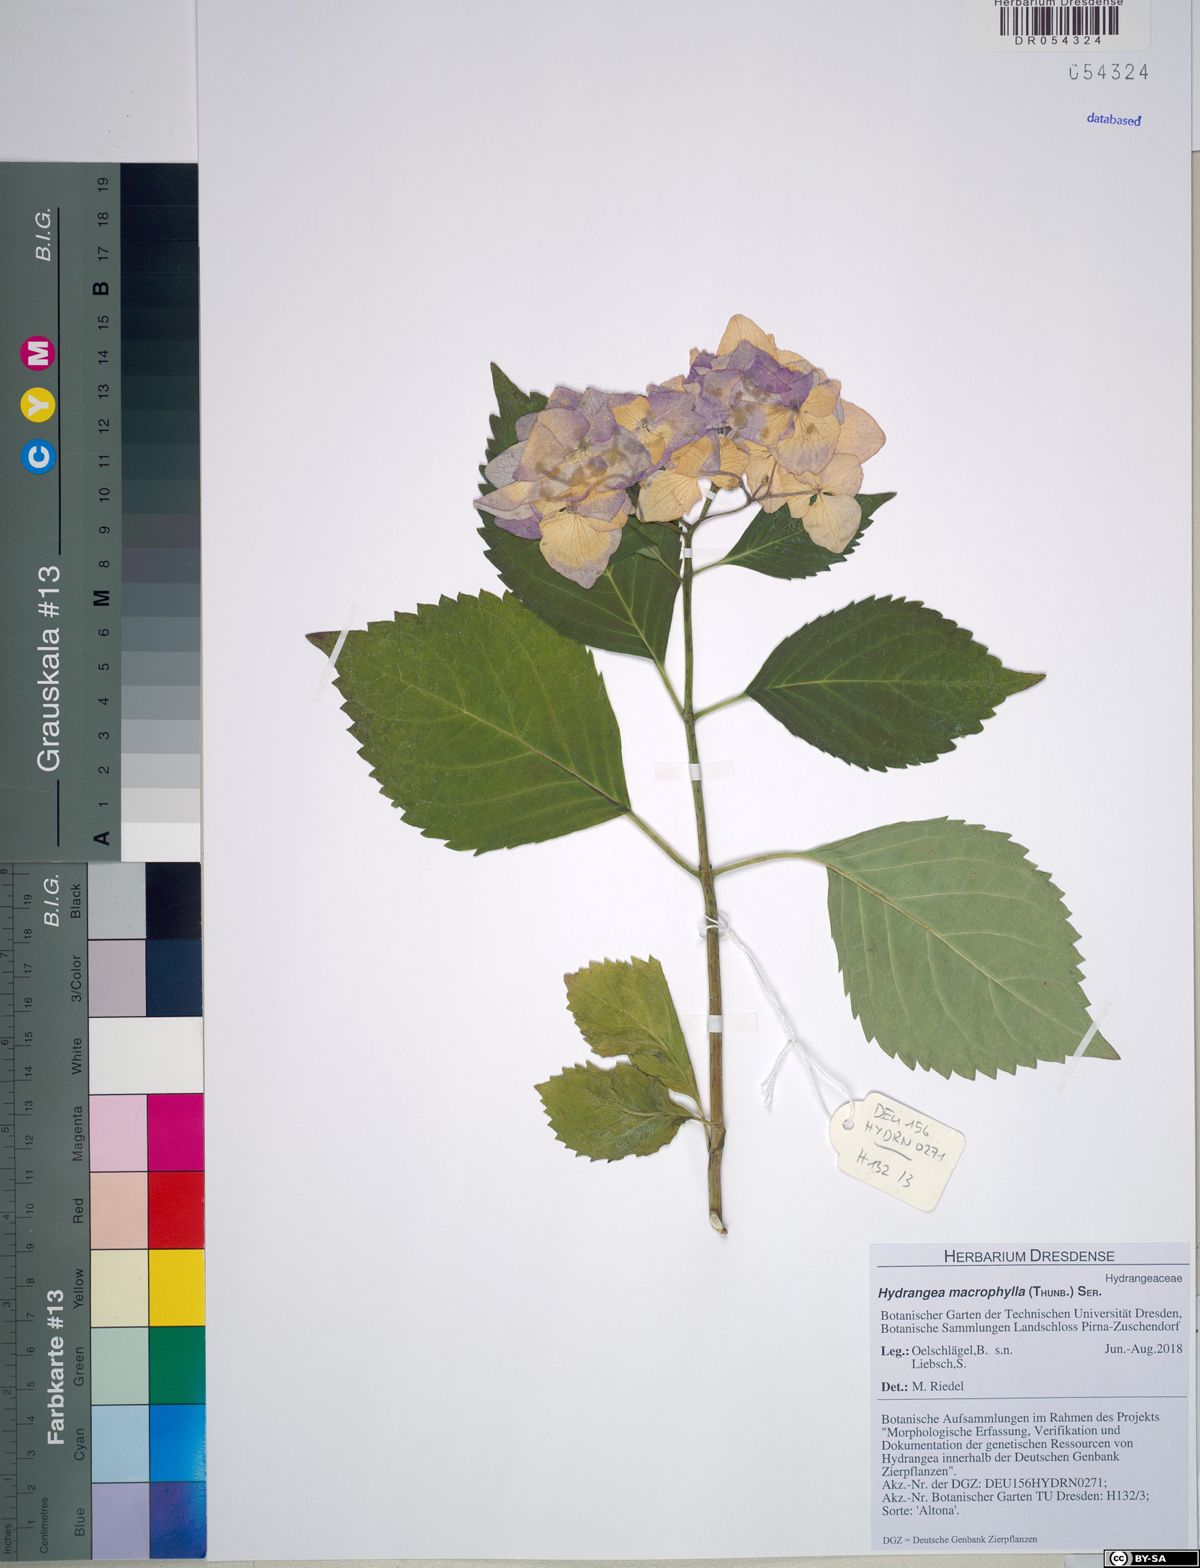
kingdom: Plantae
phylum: Tracheophyta
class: Magnoliopsida
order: Cornales
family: Hydrangeaceae
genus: Hydrangea
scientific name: Hydrangea macrophylla
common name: Hydrangea
